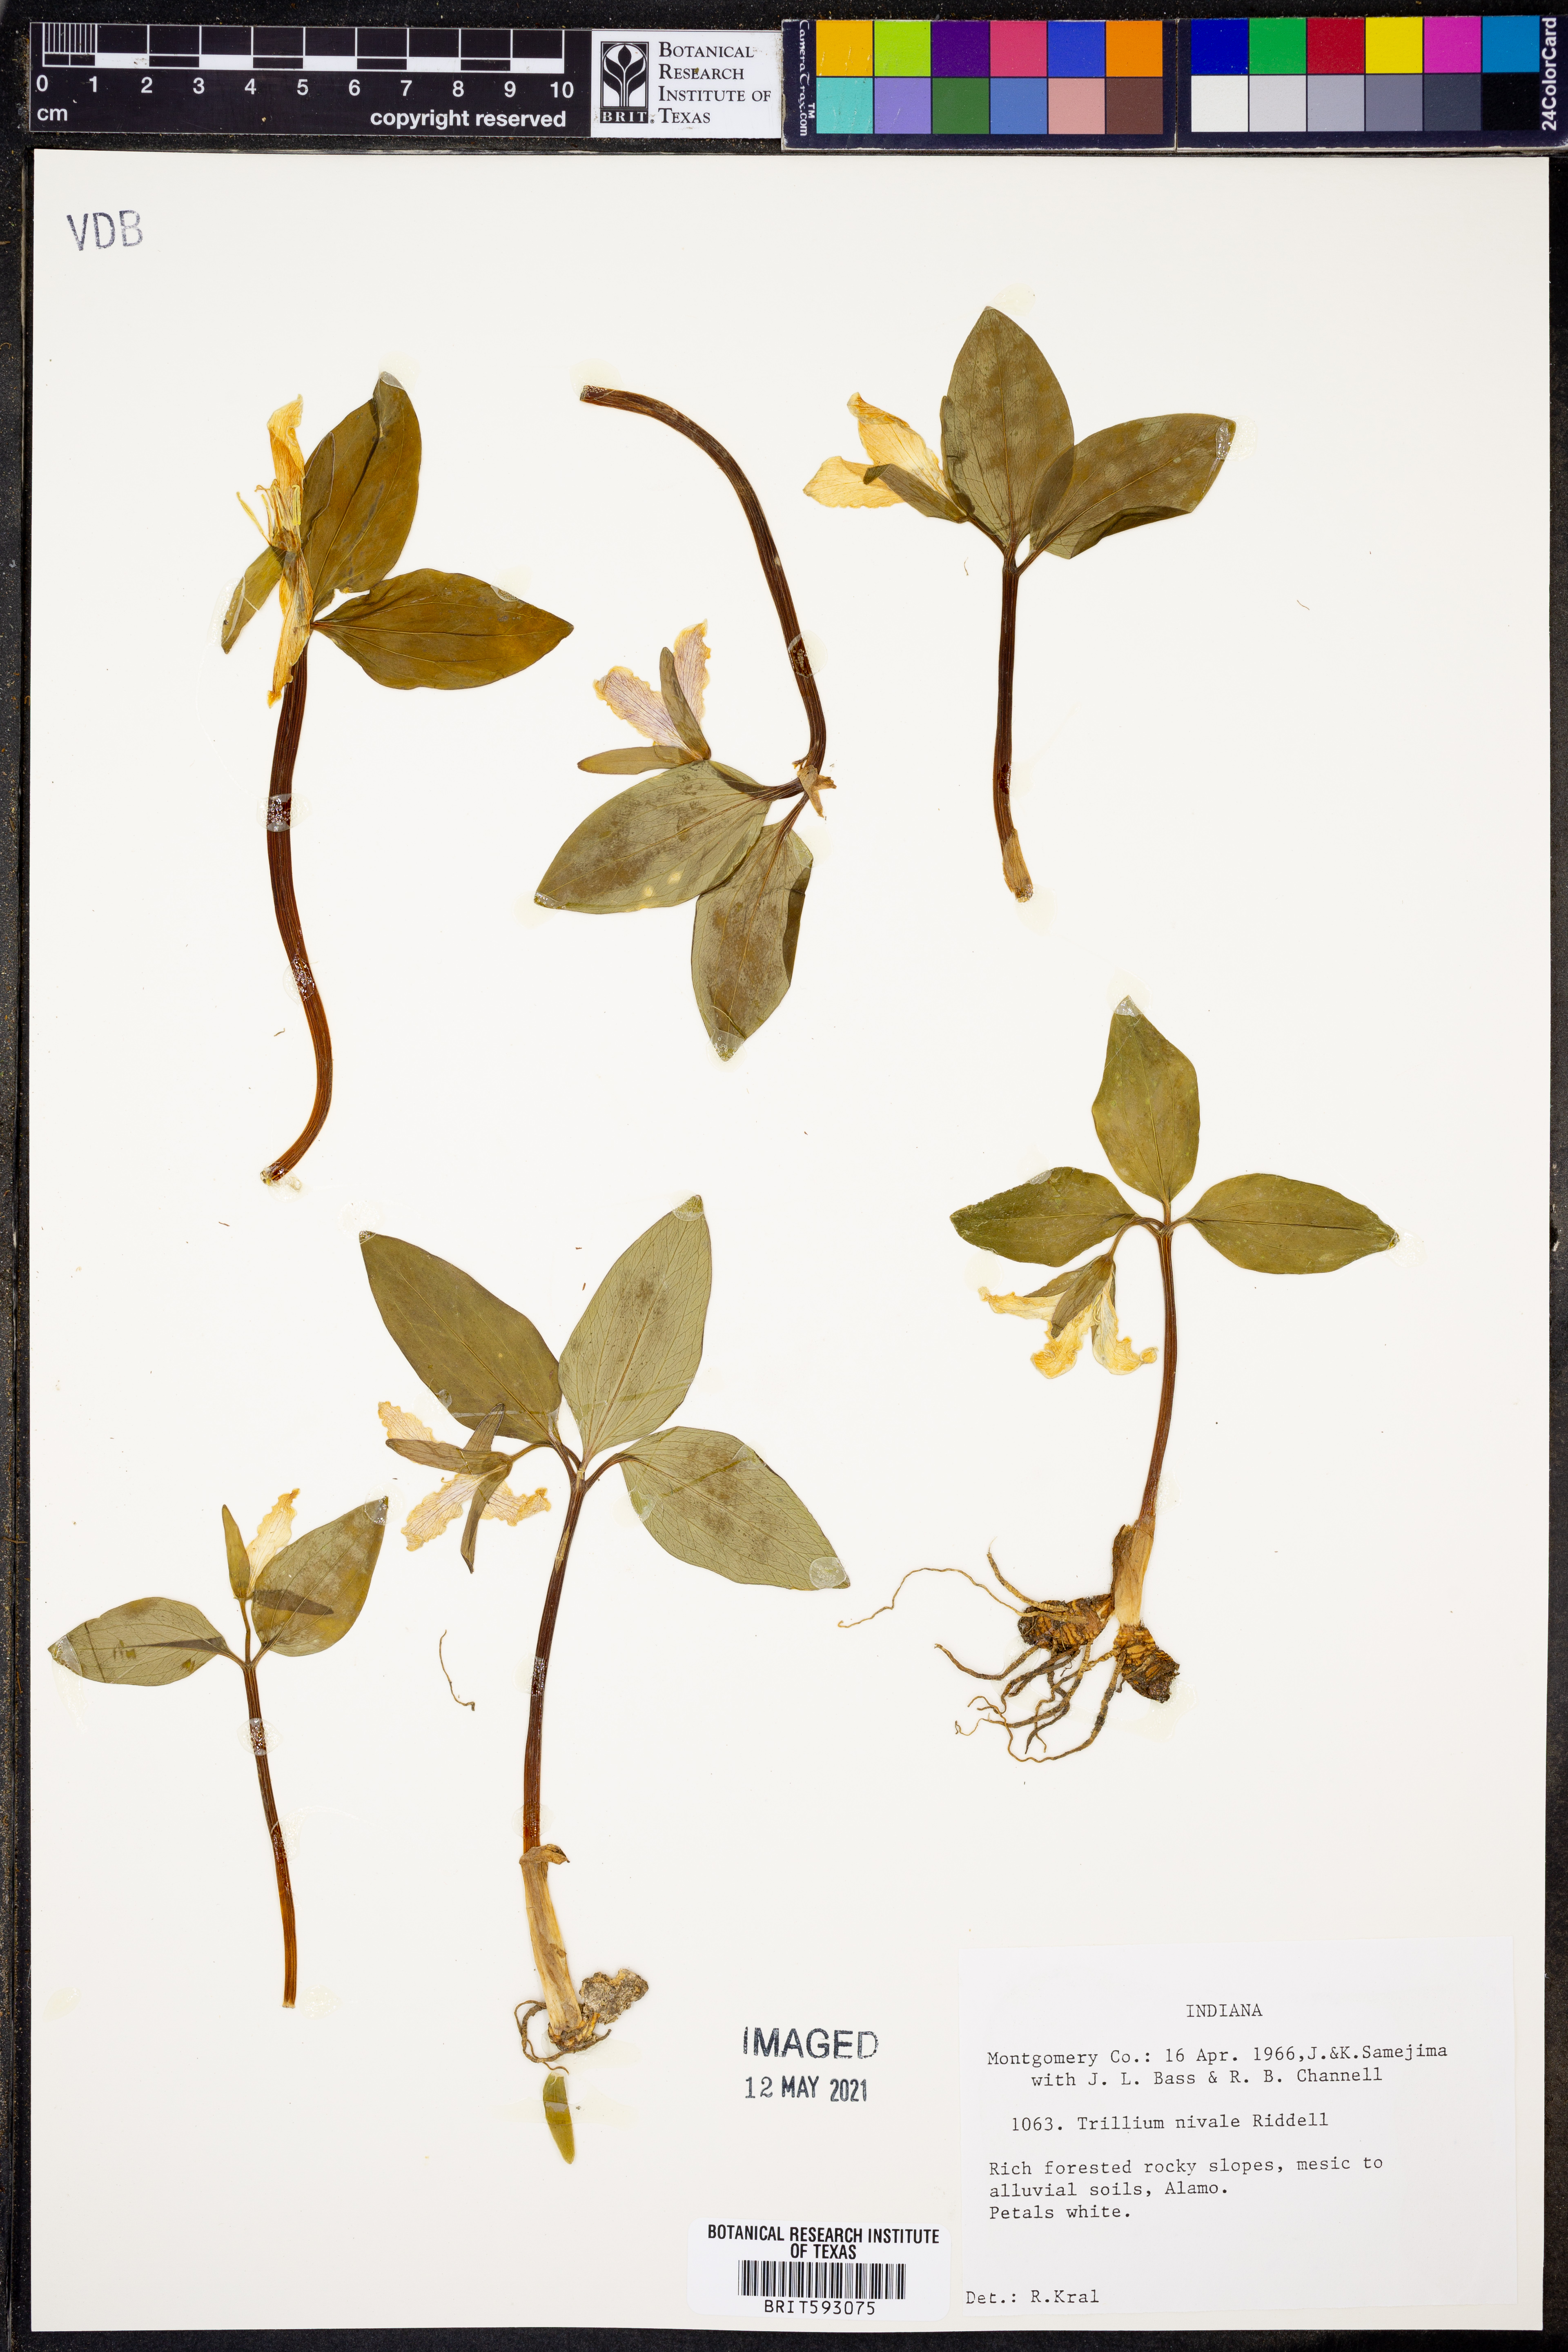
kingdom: Plantae
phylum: Tracheophyta
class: Liliopsida
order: Liliales
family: Melanthiaceae
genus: Trillium
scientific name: Trillium nivale
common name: Dwarf white trillium
